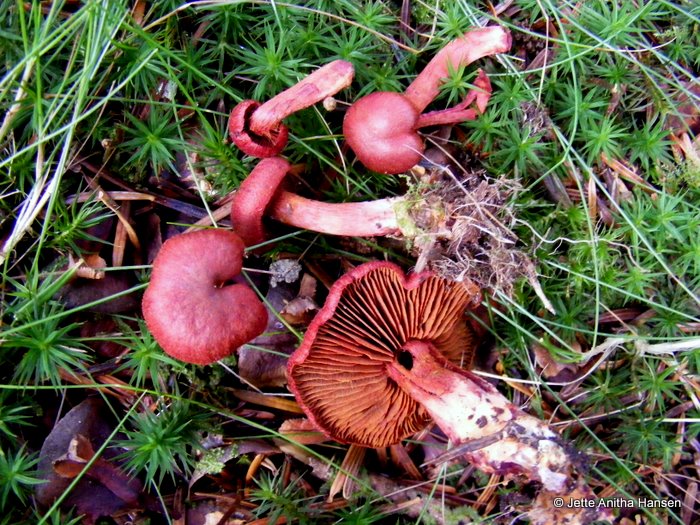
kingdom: Fungi
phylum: Basidiomycota
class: Agaricomycetes
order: Agaricales
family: Cortinariaceae
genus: Cortinarius
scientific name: Cortinarius sanguineus
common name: blodrød slørhat
